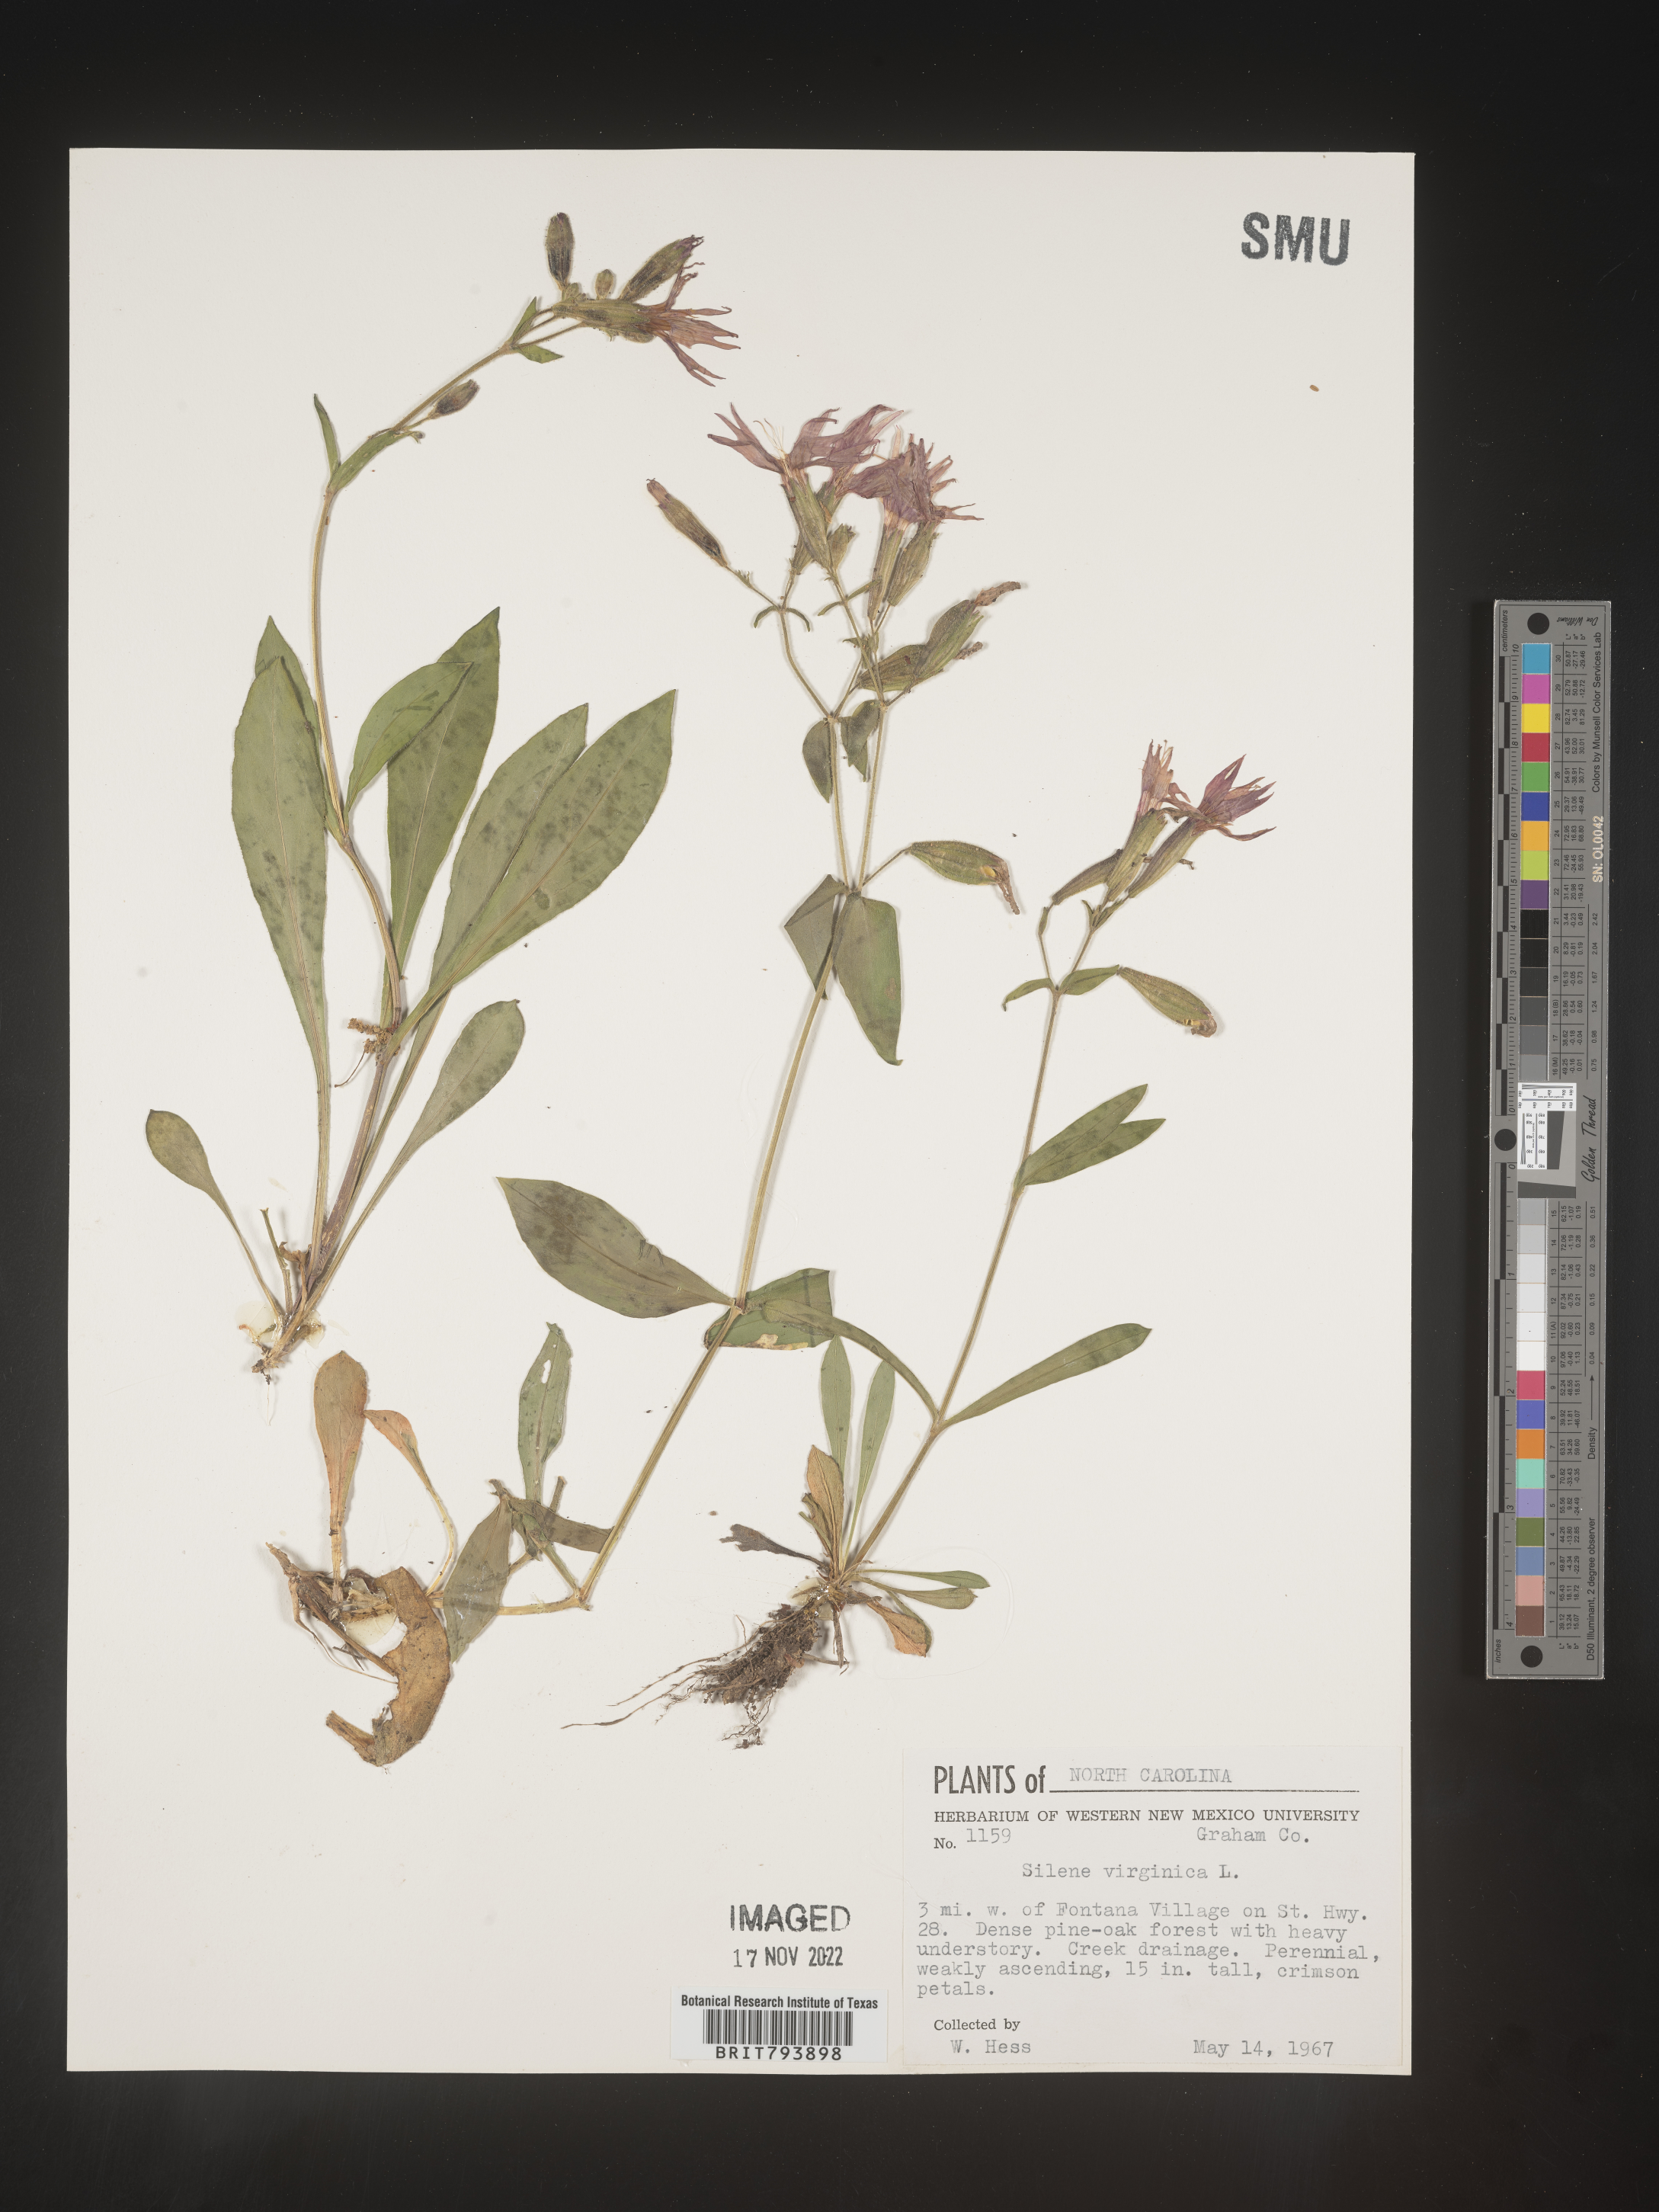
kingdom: Plantae
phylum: Tracheophyta
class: Magnoliopsida
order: Caryophyllales
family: Caryophyllaceae
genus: Silene
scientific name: Silene virginica
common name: Fire-pink
